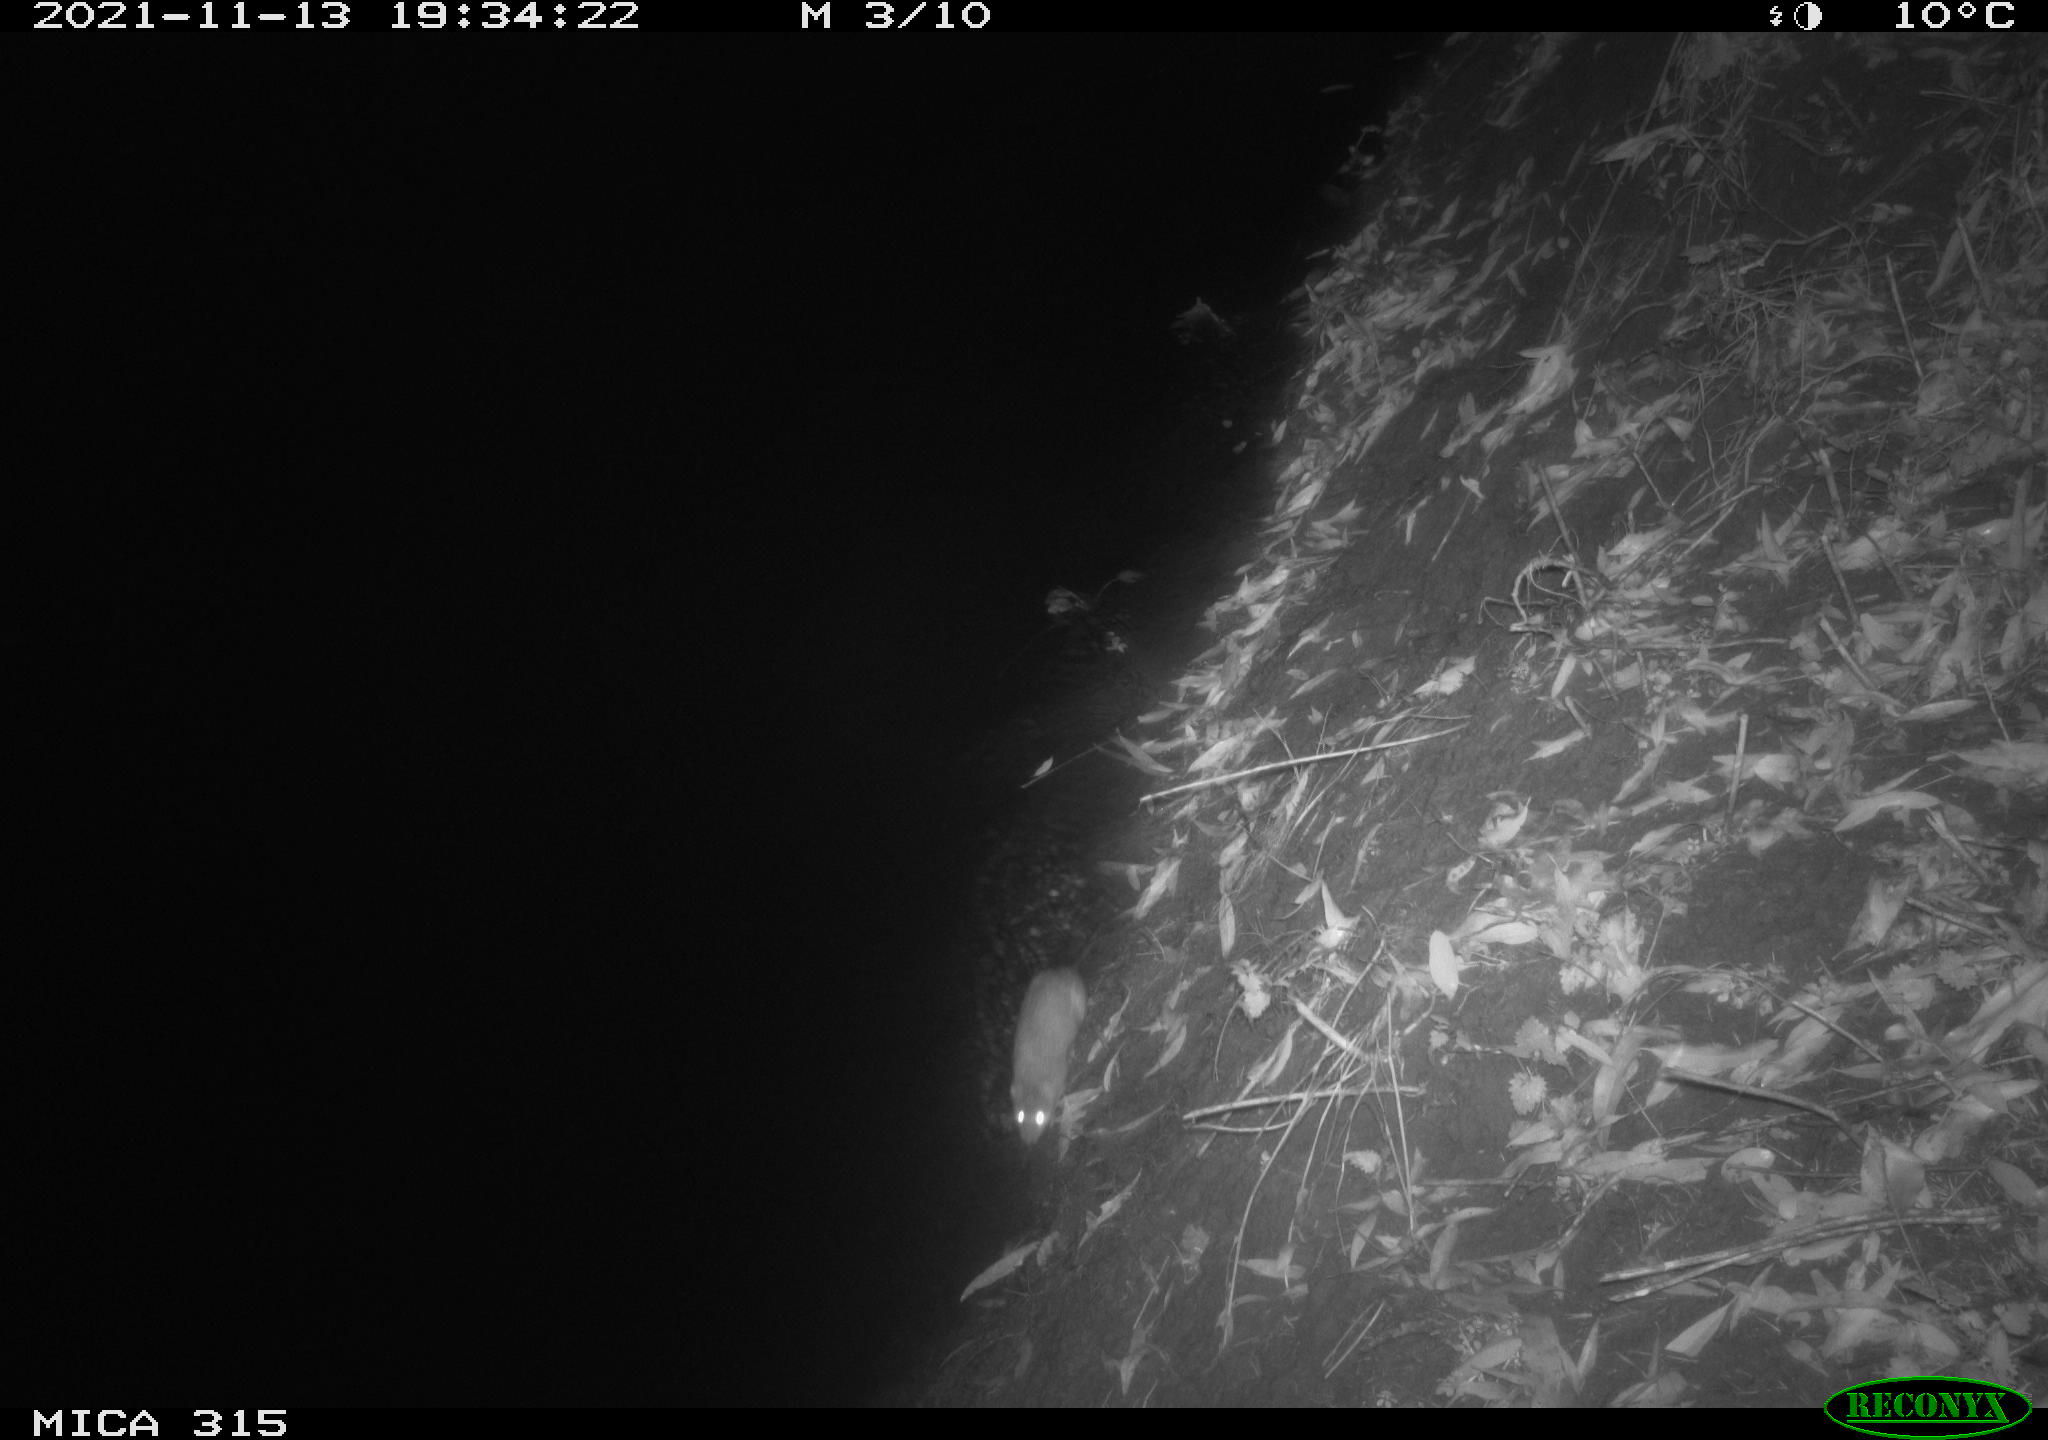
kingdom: Animalia
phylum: Chordata
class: Mammalia
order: Rodentia
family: Muridae
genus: Rattus
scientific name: Rattus norvegicus
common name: Brown rat
